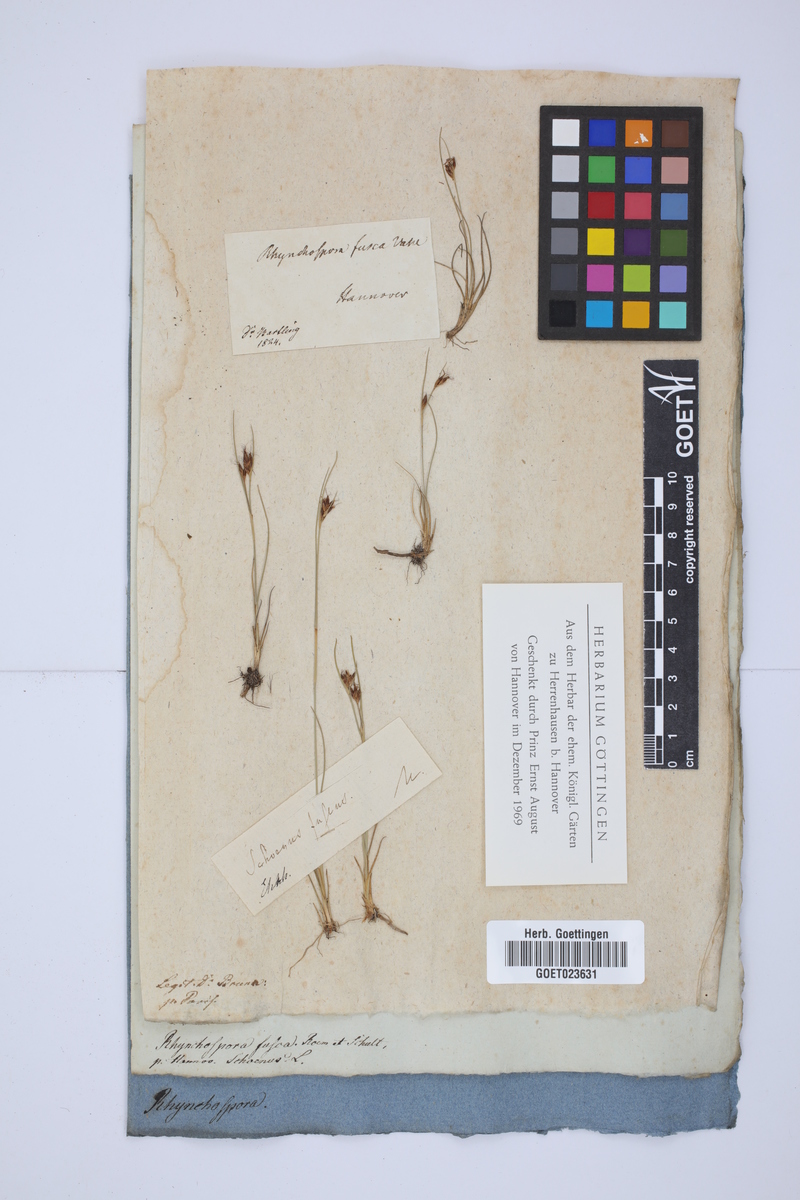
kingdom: Plantae
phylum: Tracheophyta
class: Liliopsida
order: Poales
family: Cyperaceae
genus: Rhynchospora
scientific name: Rhynchospora fusca
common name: Brown beak-sedge
